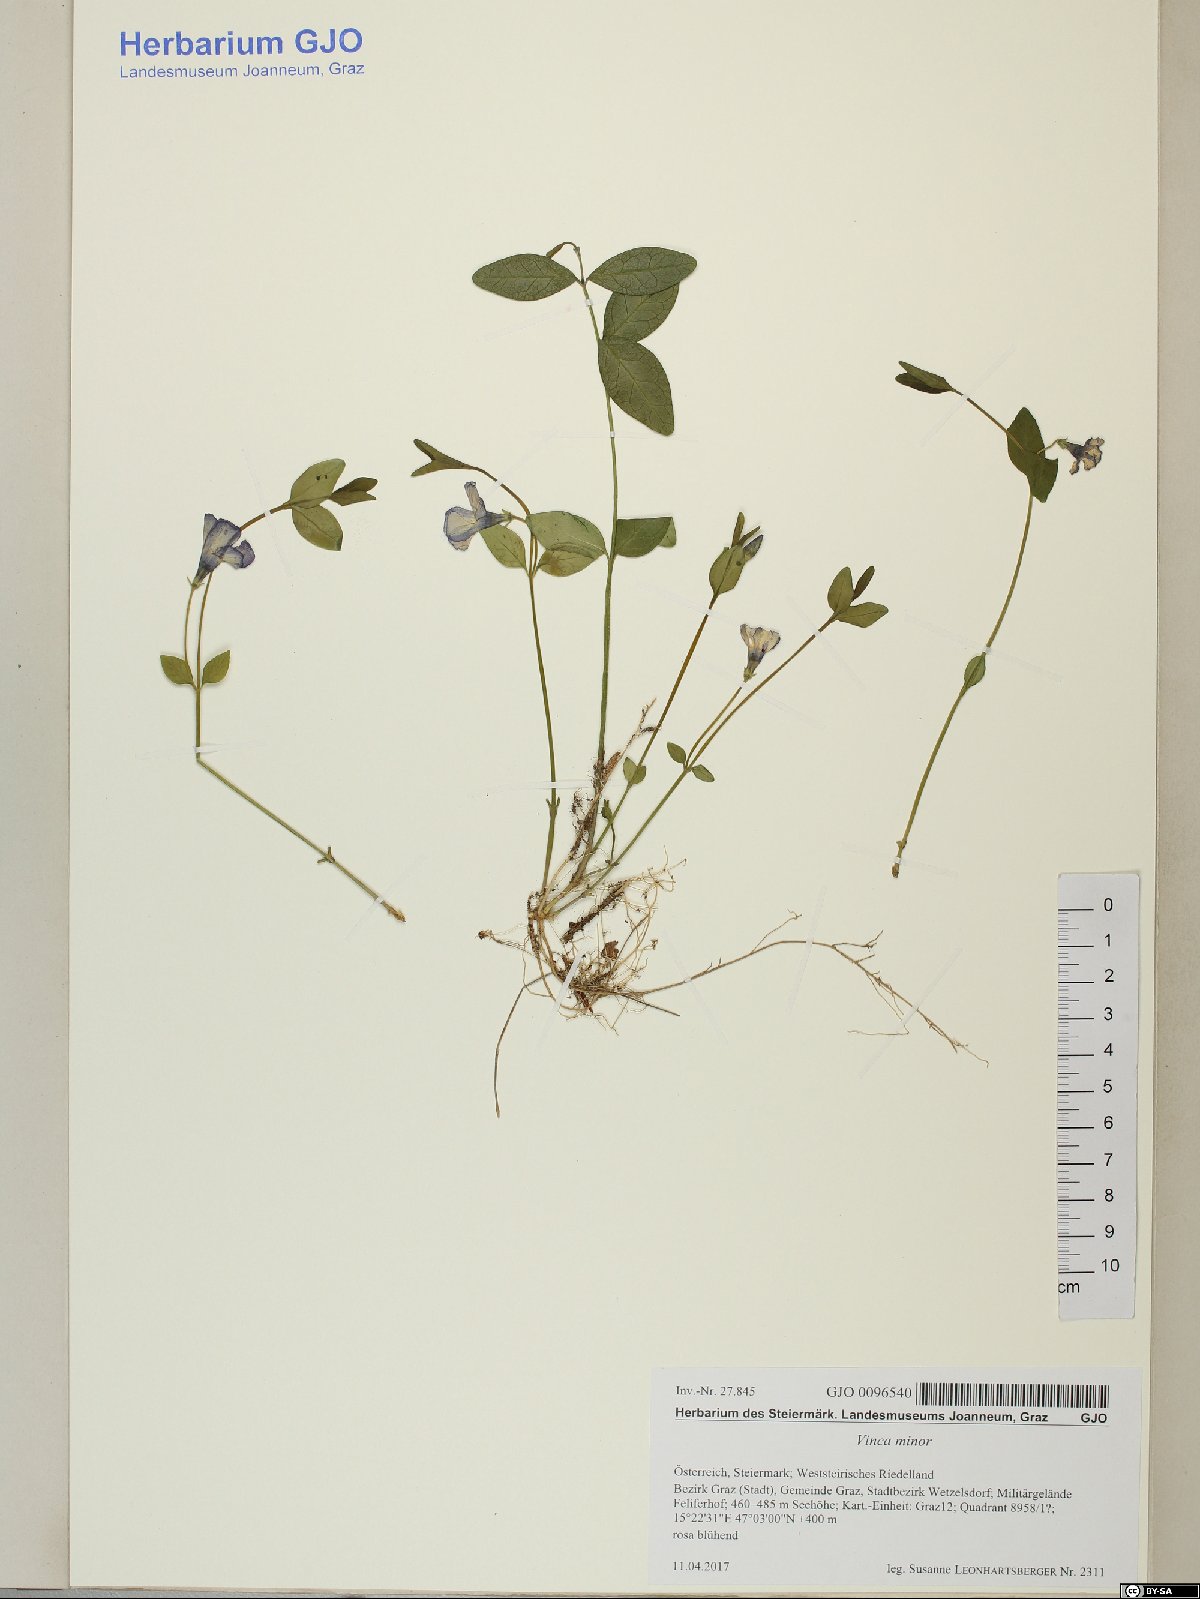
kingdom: Plantae
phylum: Tracheophyta
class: Magnoliopsida
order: Gentianales
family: Apocynaceae
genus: Vinca
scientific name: Vinca minor
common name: Lesser periwinkle
